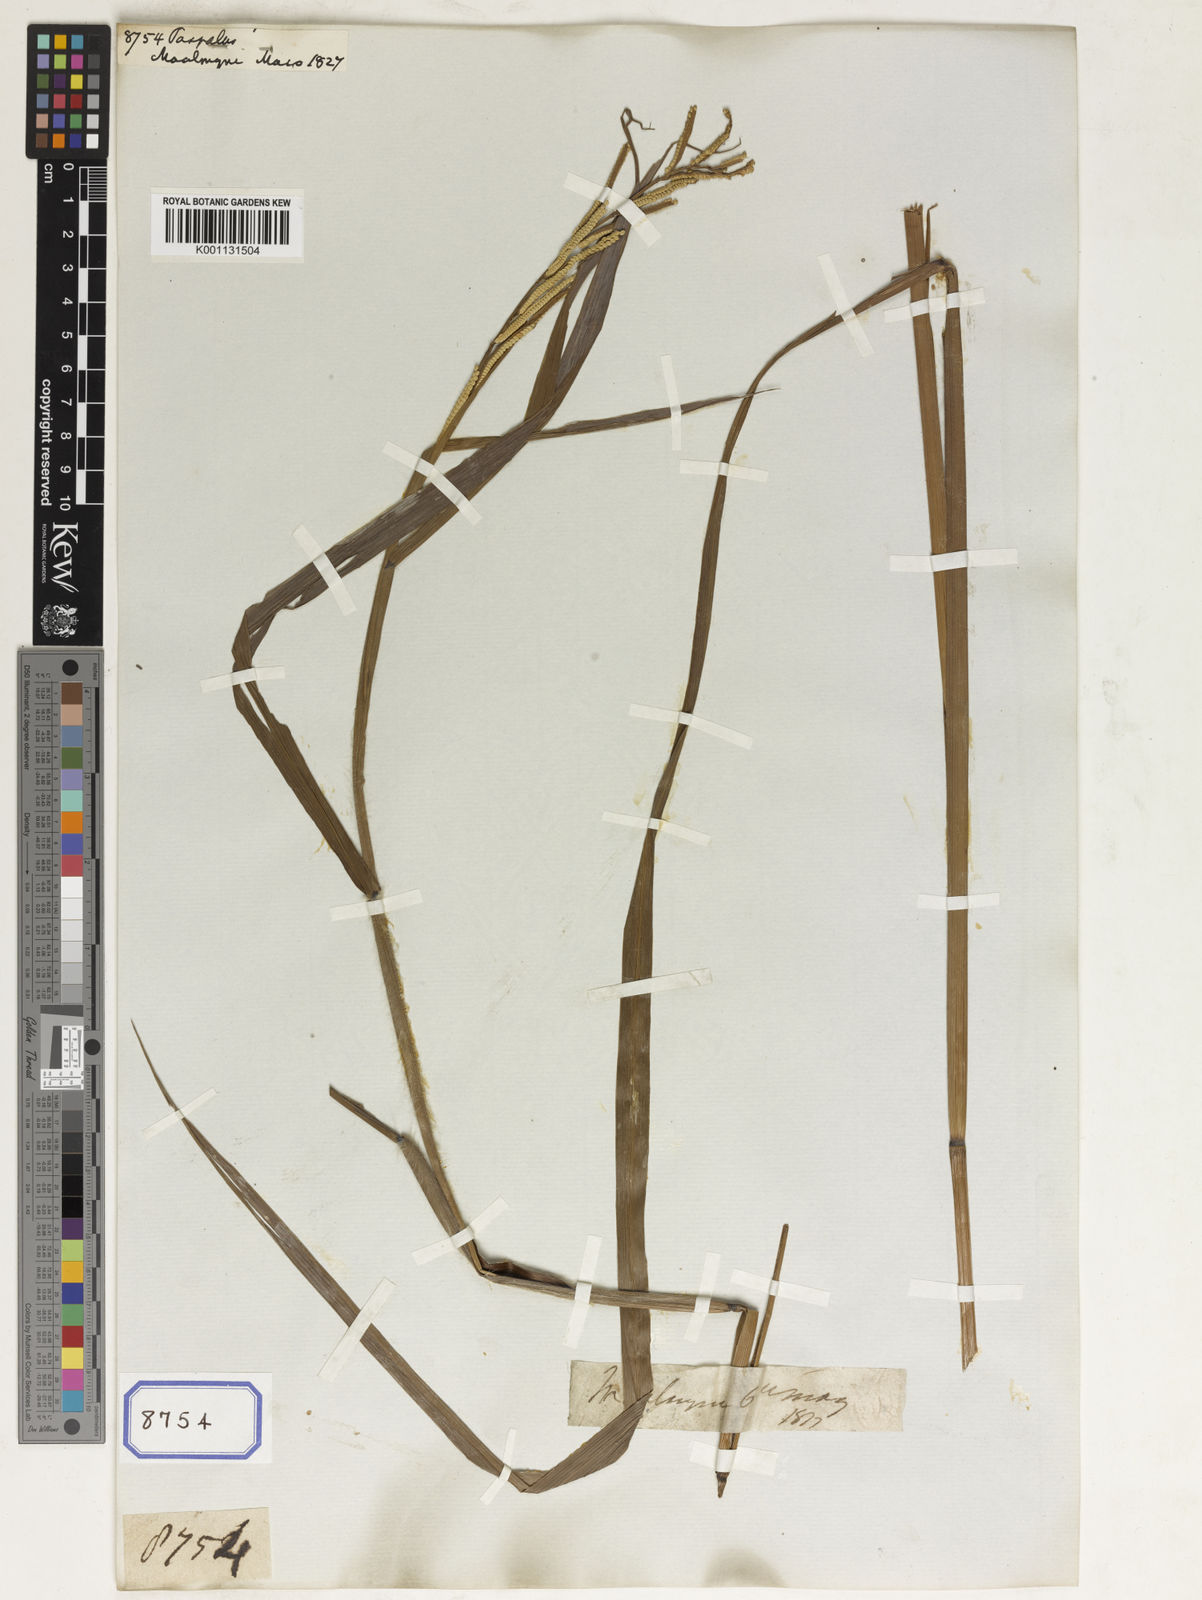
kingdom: Plantae
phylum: Tracheophyta
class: Liliopsida
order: Poales
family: Poaceae
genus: Paspalum
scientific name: Paspalum
